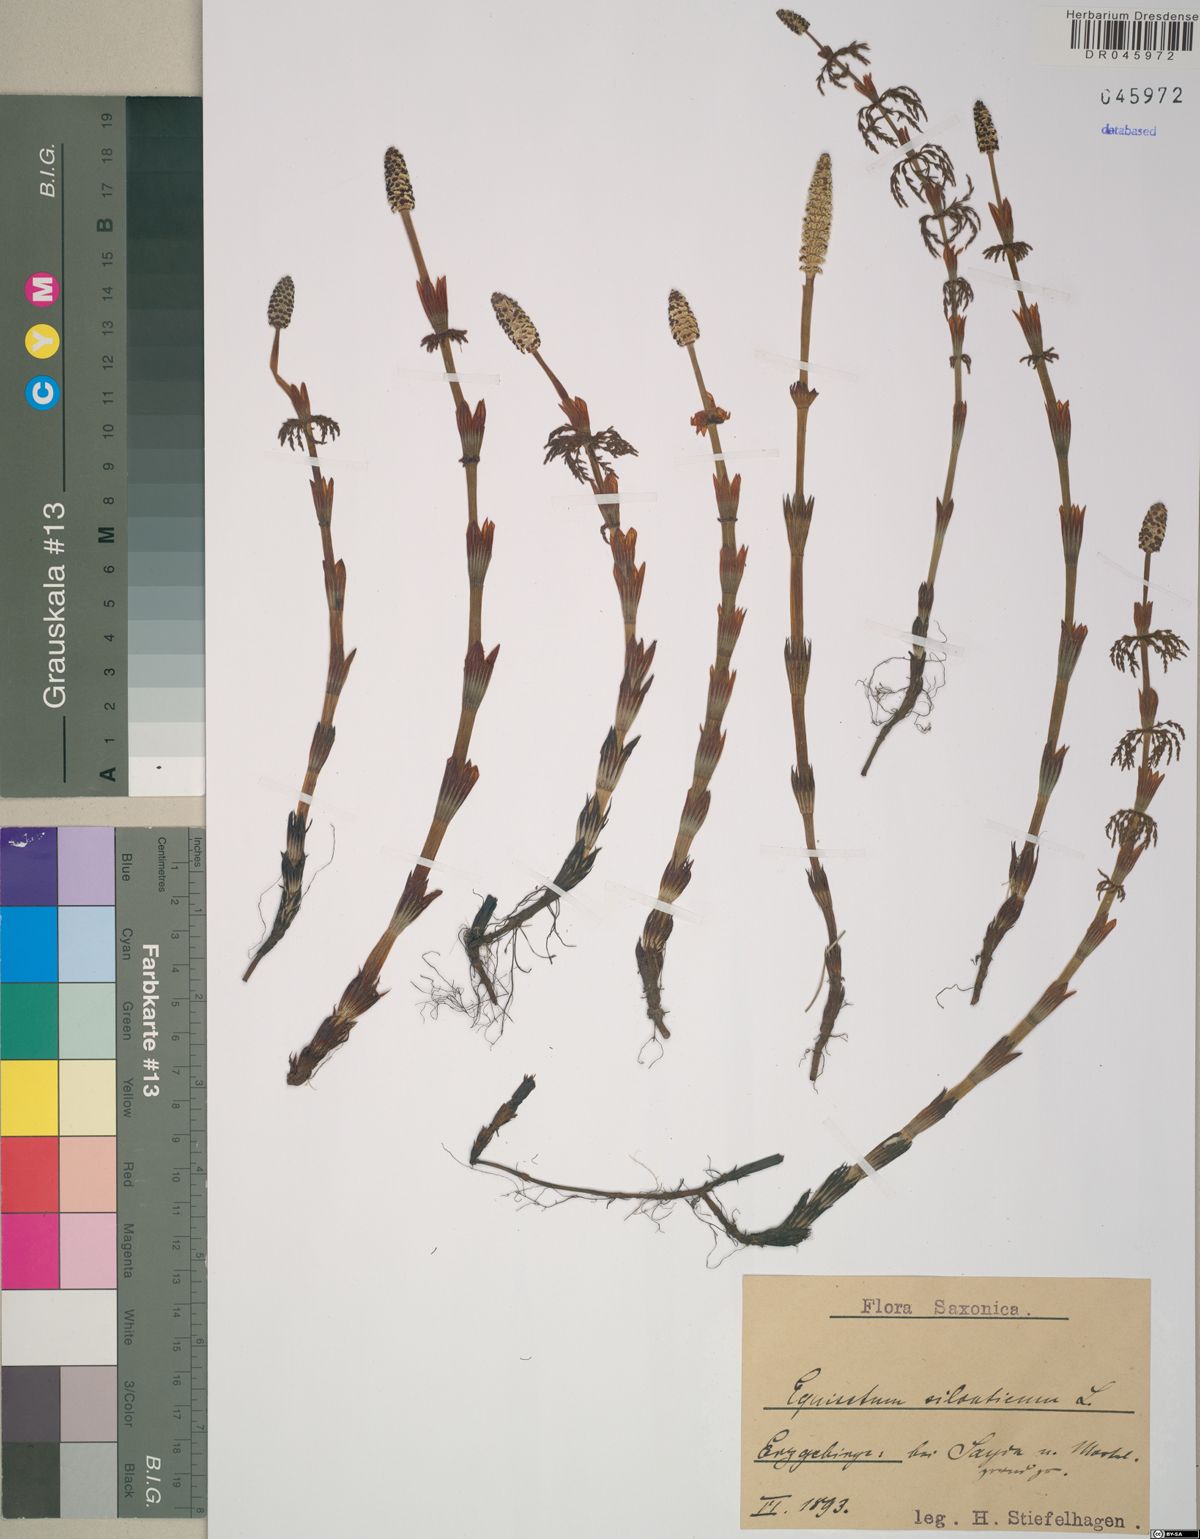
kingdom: Plantae
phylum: Tracheophyta
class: Polypodiopsida
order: Equisetales
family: Equisetaceae
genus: Equisetum
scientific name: Equisetum sylvaticum
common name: Wood horsetail
